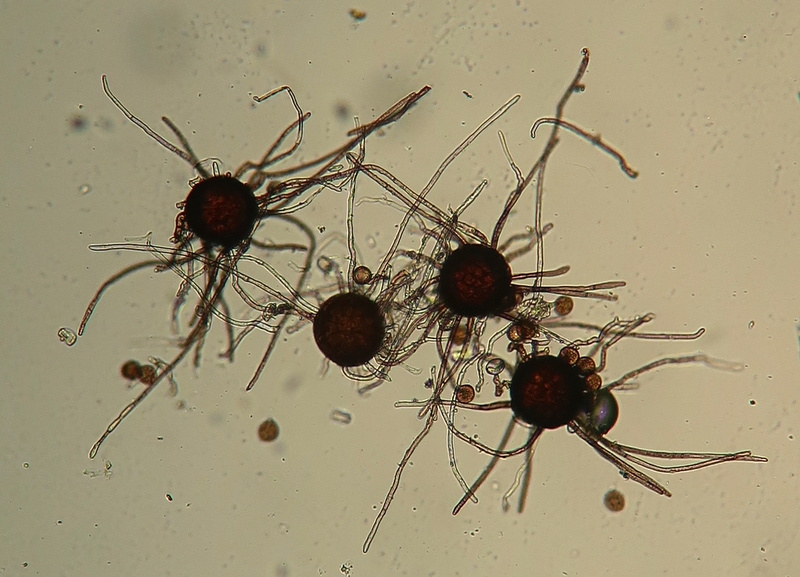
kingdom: Fungi
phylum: Ascomycota
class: Leotiomycetes
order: Helotiales
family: Erysiphaceae
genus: Podosphaera
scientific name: Podosphaera epilobii
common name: dueurt-meldug
